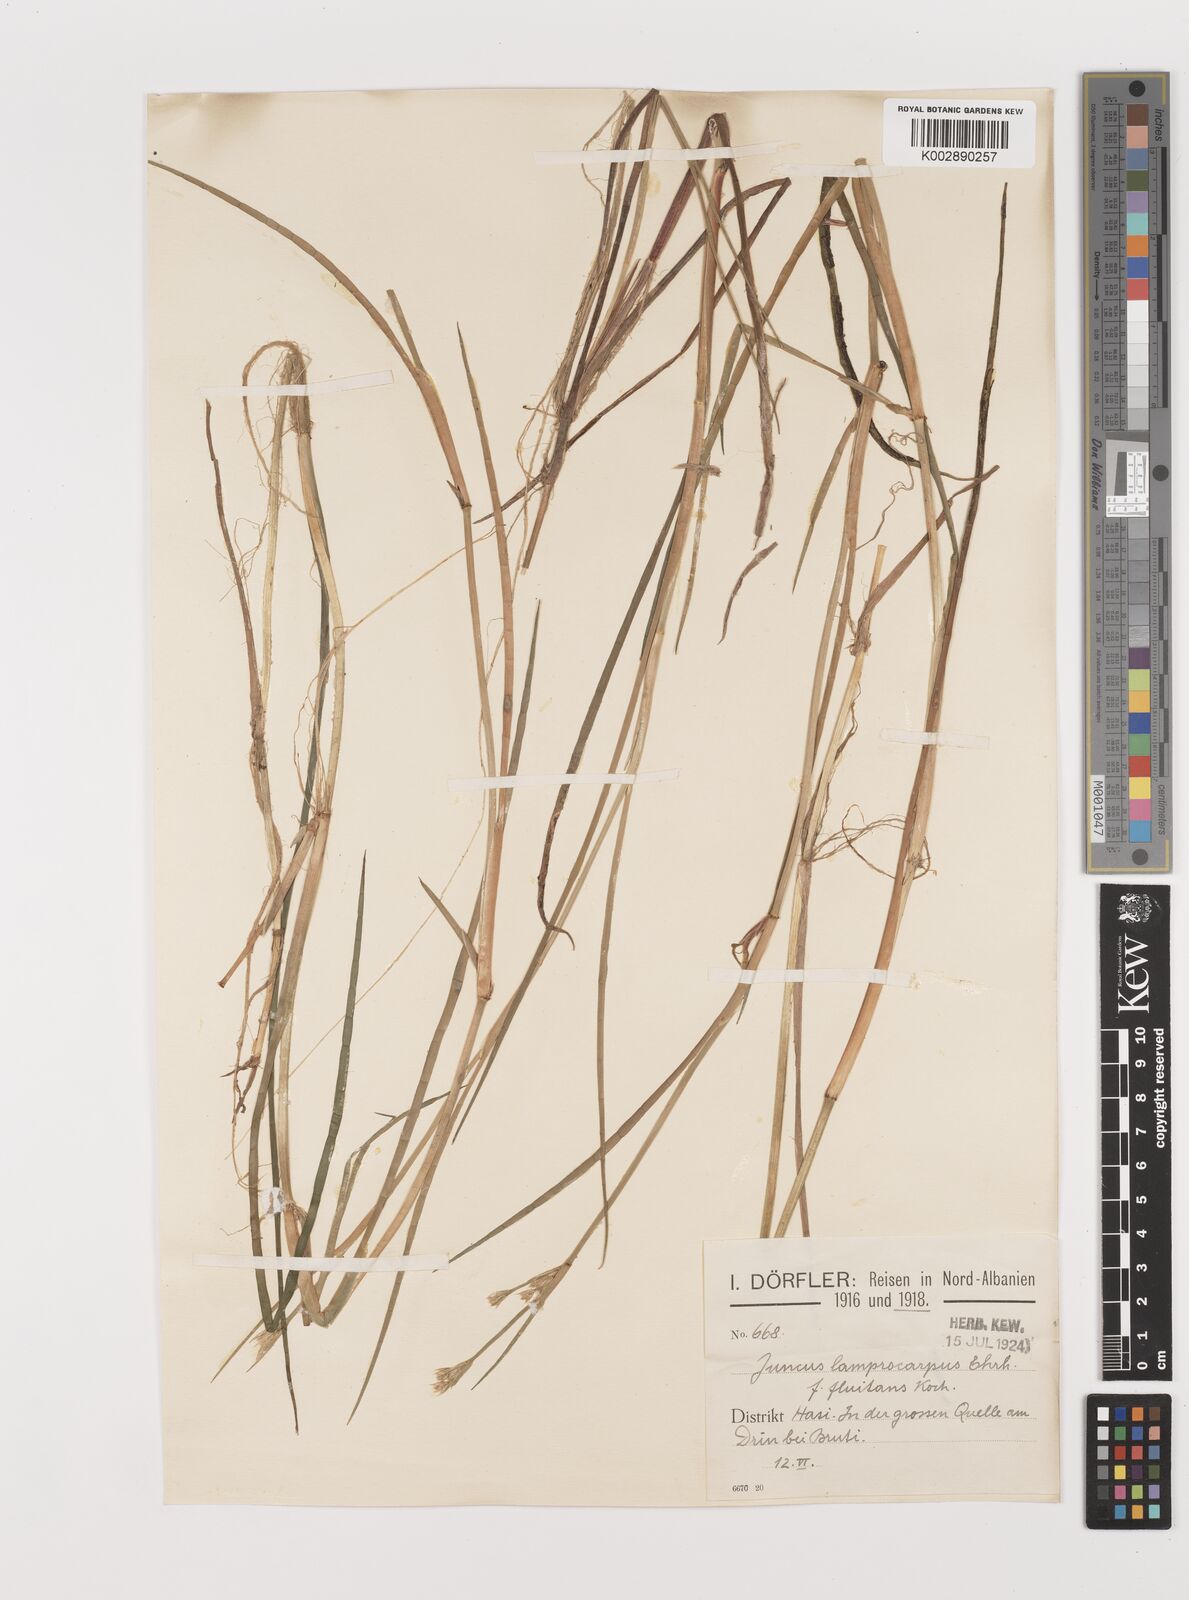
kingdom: Plantae
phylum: Tracheophyta
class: Liliopsida
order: Poales
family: Juncaceae
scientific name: Juncaceae
